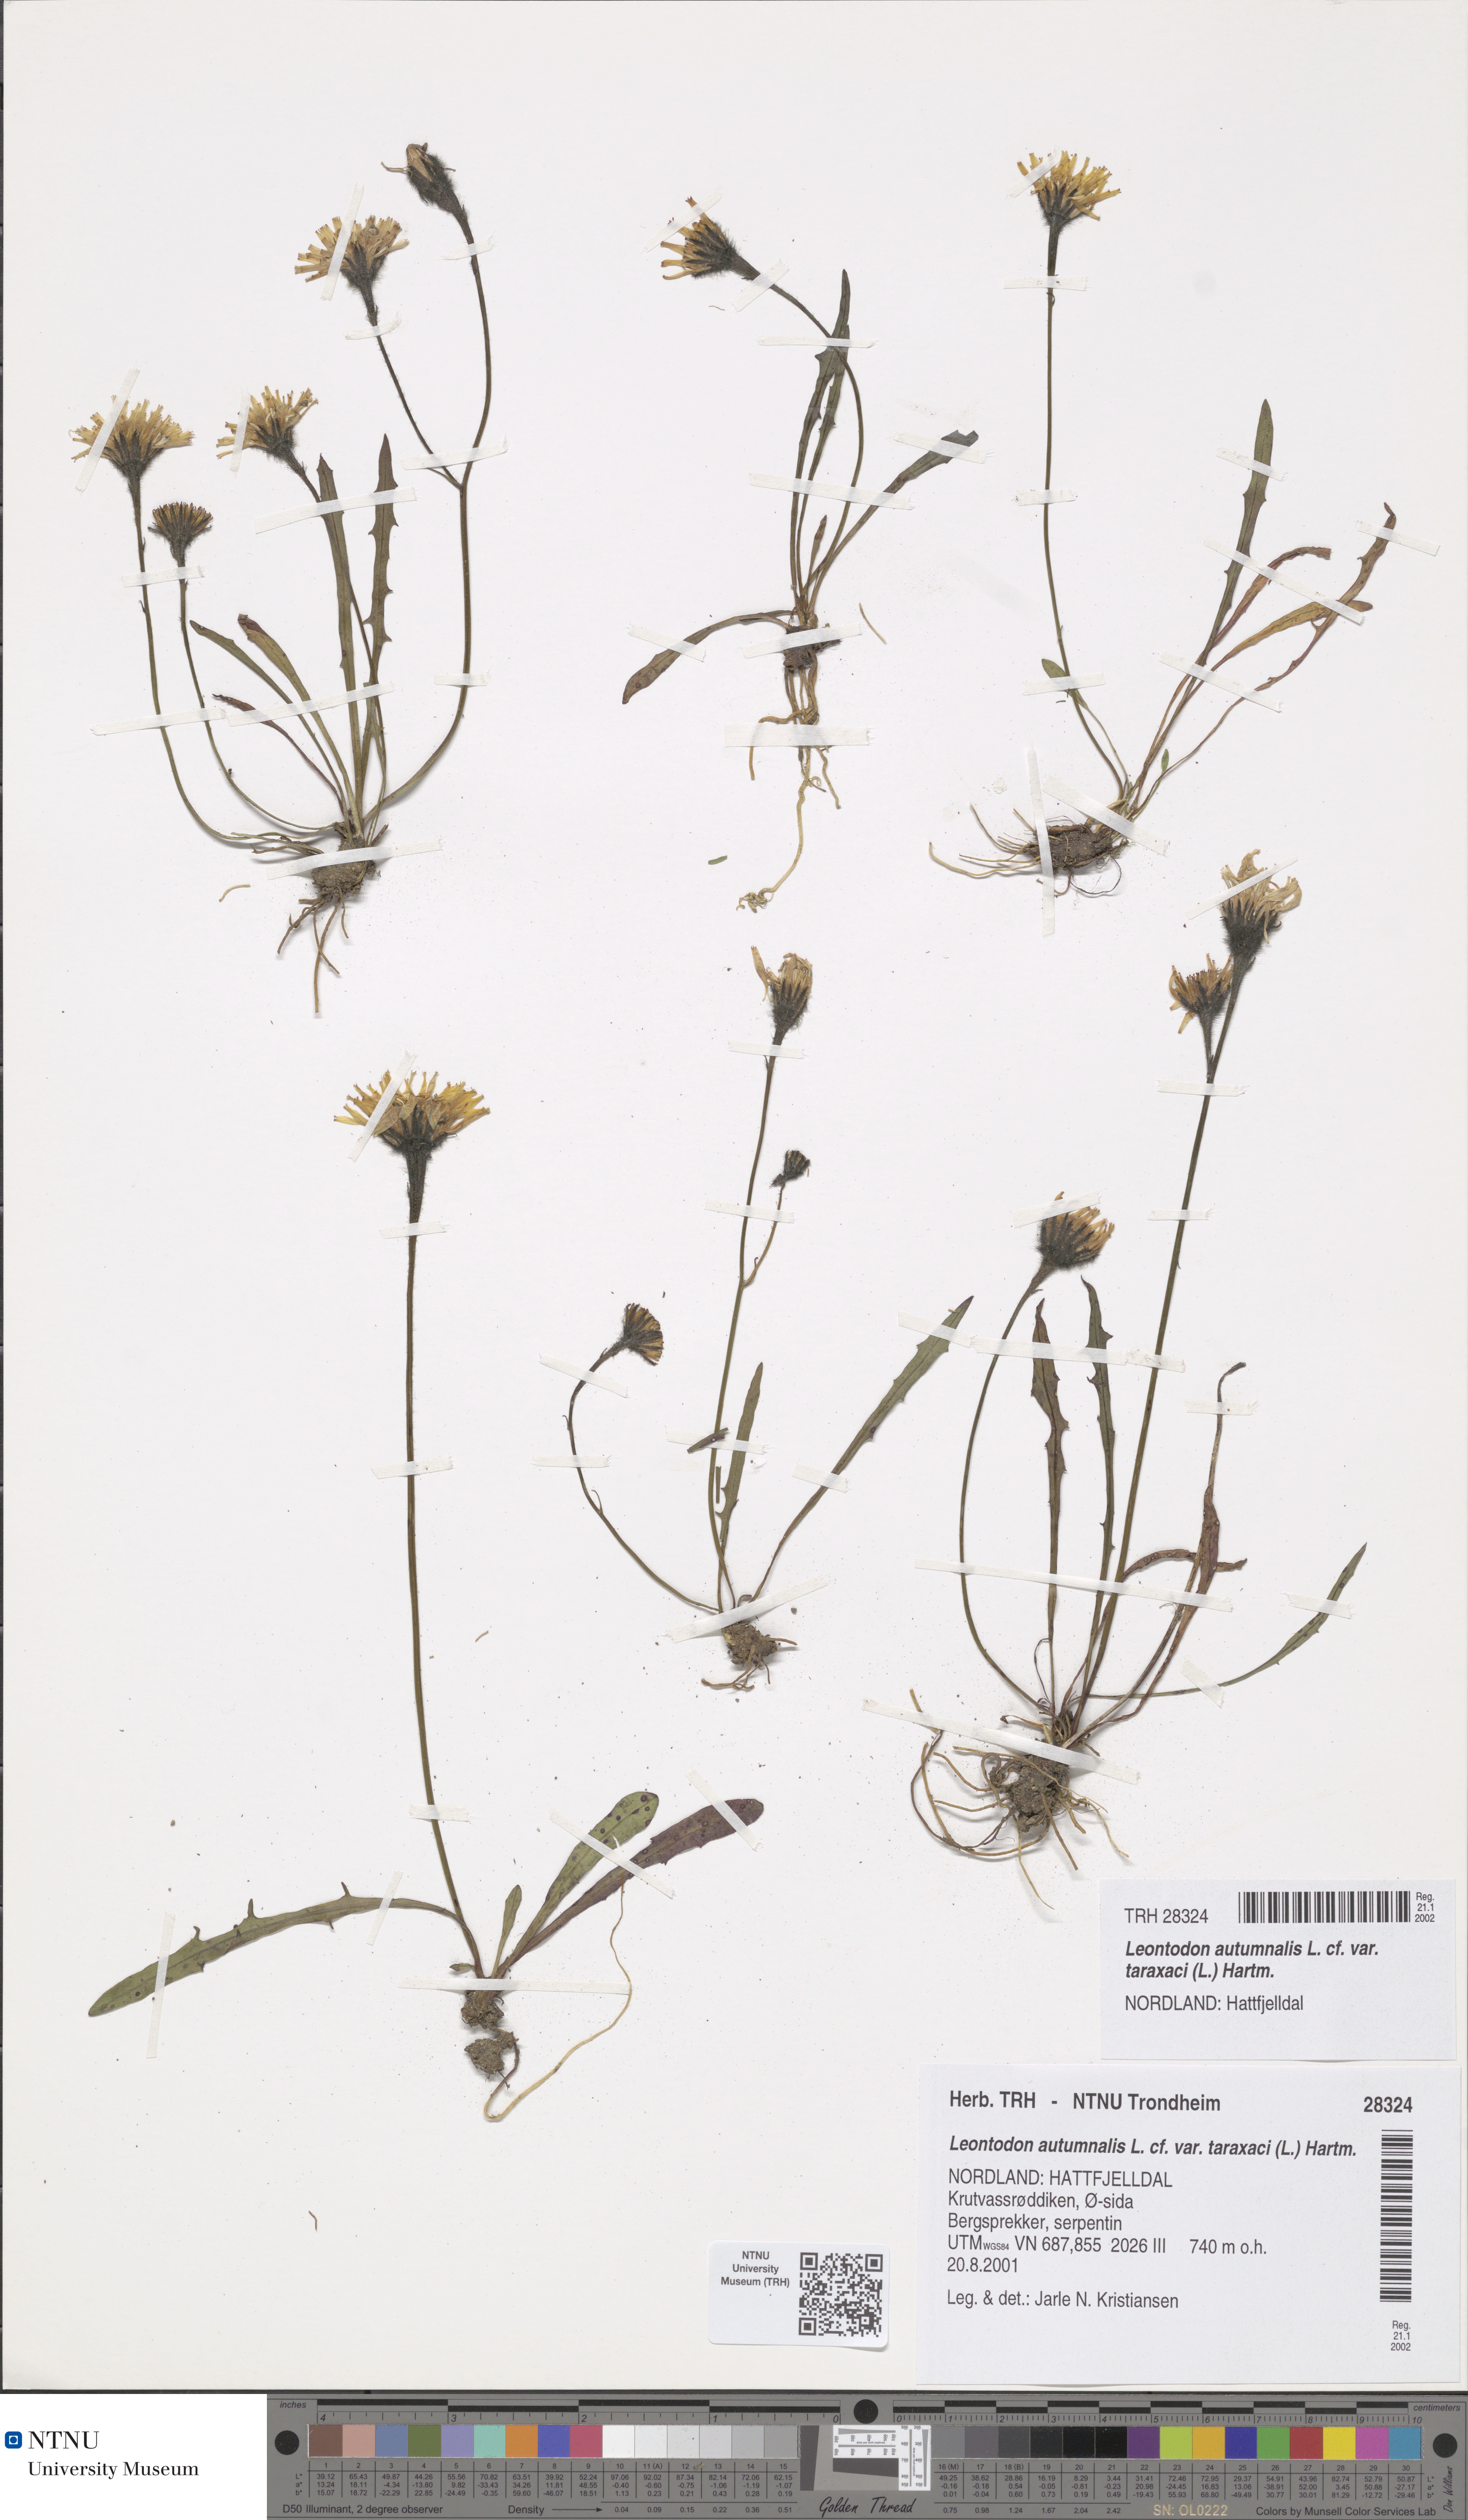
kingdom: Plantae
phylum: Tracheophyta
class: Magnoliopsida
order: Asterales
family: Asteraceae
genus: Scorzoneroides
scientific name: Scorzoneroides autumnalis
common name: Autumn hawkbit
